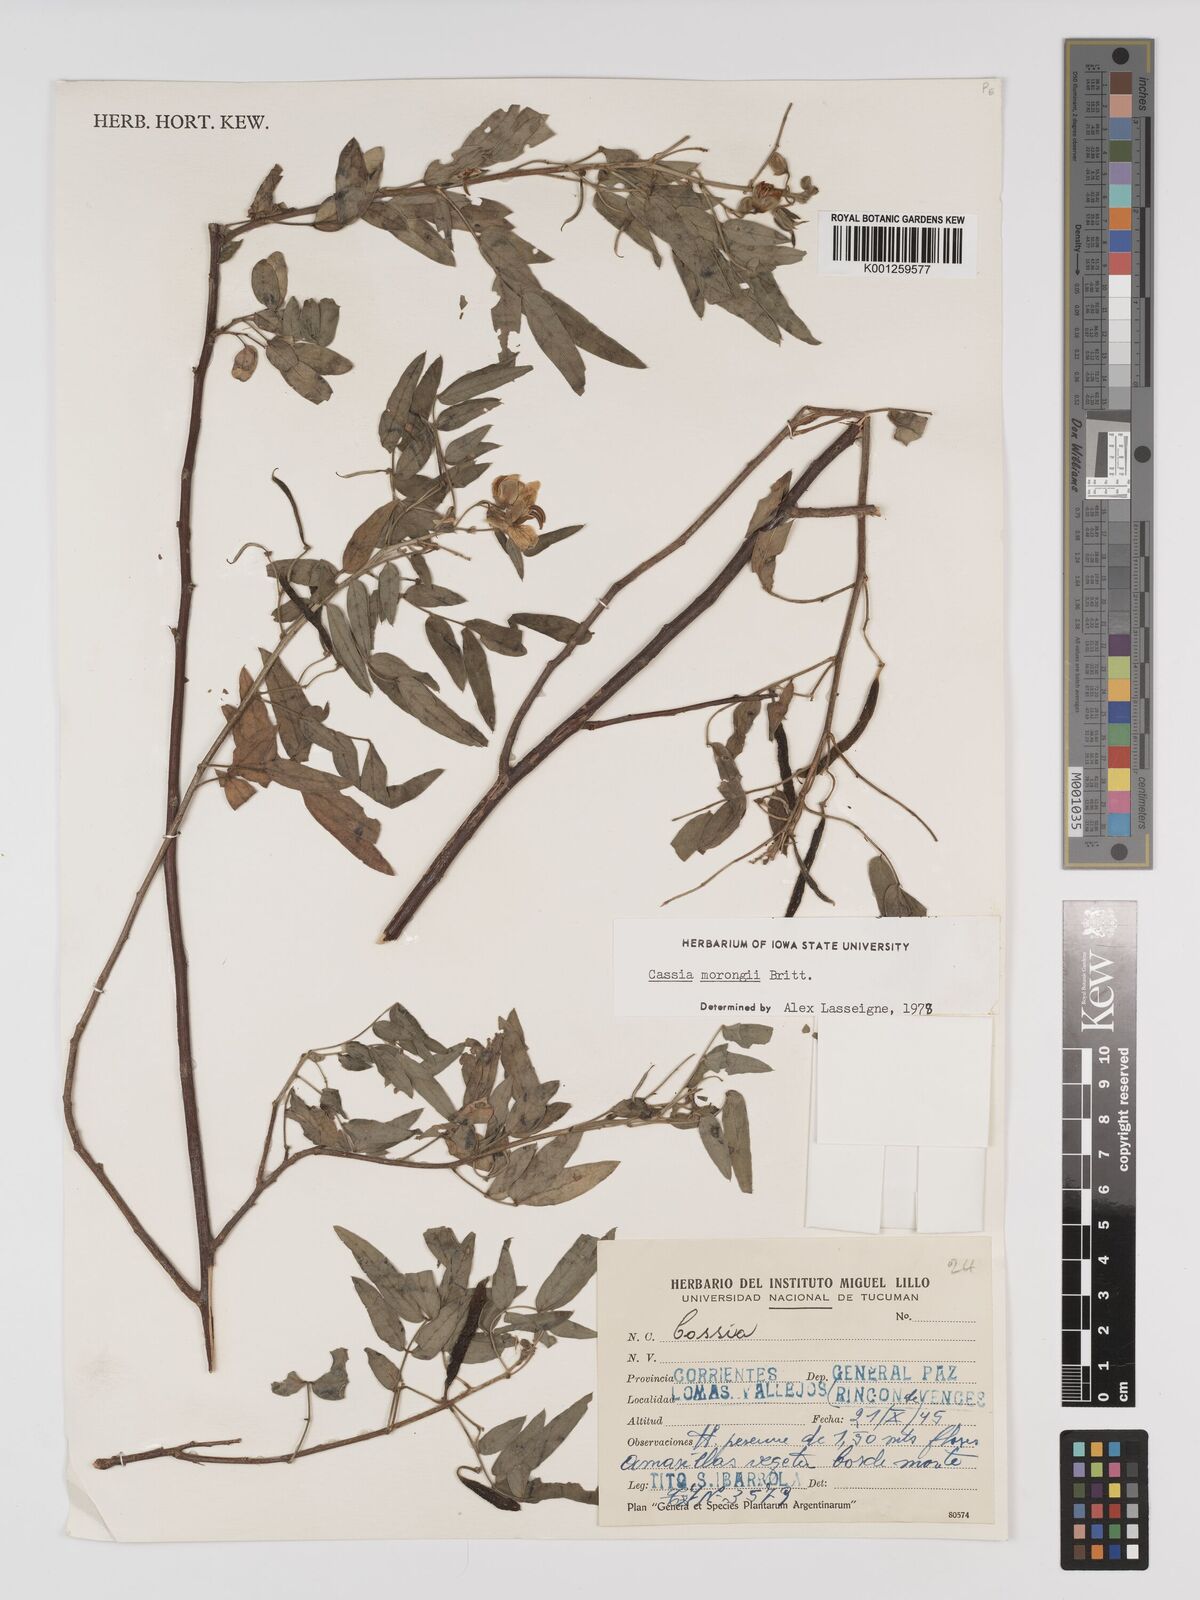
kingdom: Plantae
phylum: Tracheophyta
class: Magnoliopsida
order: Fabales
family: Fabaceae
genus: Senna
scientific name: Senna morongii
